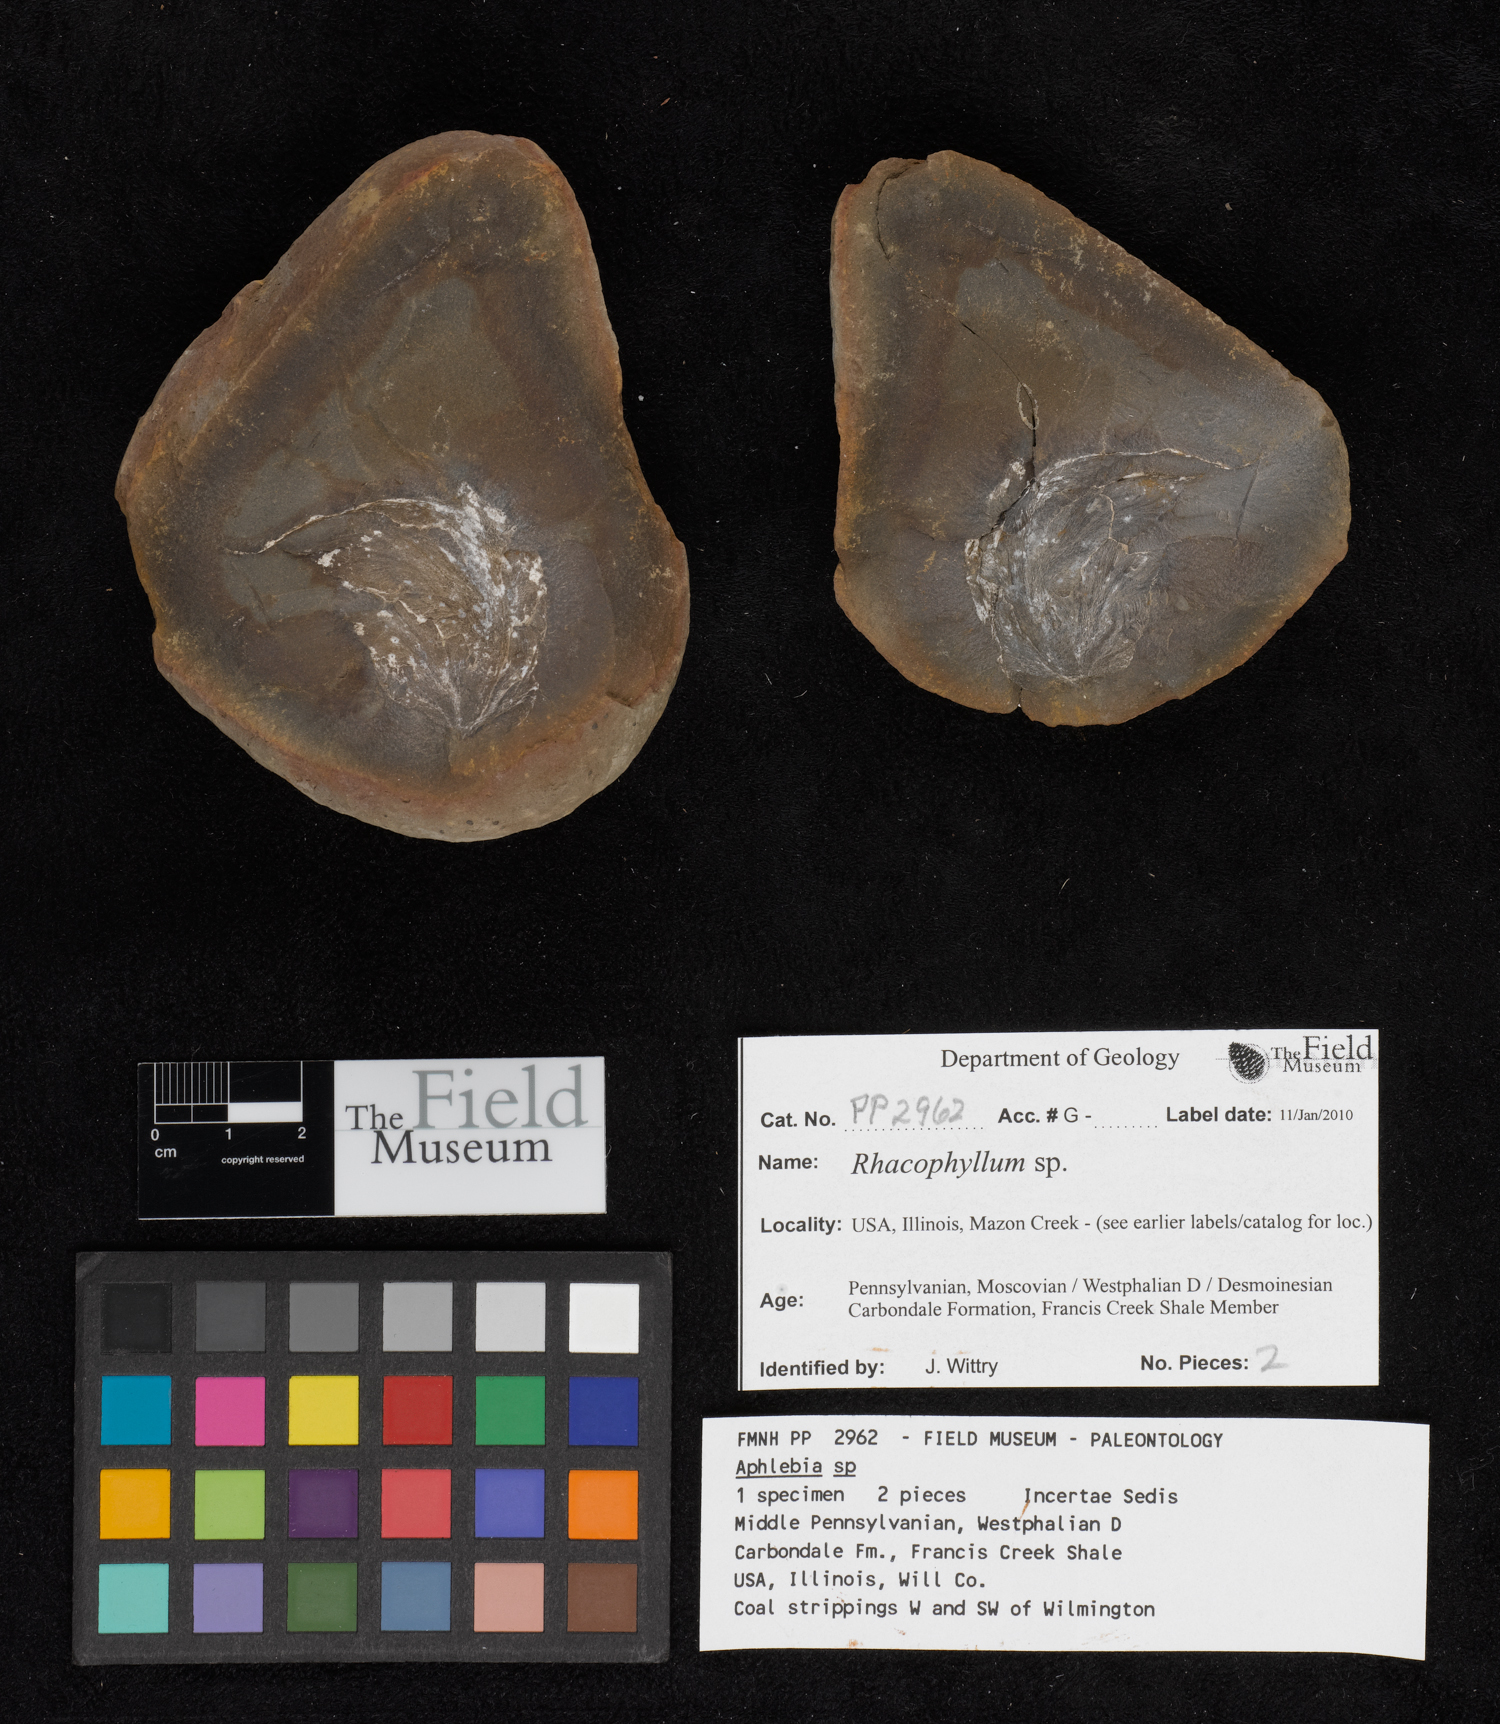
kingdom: Plantae
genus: Rhacophyllum
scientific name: Rhacophyllum
